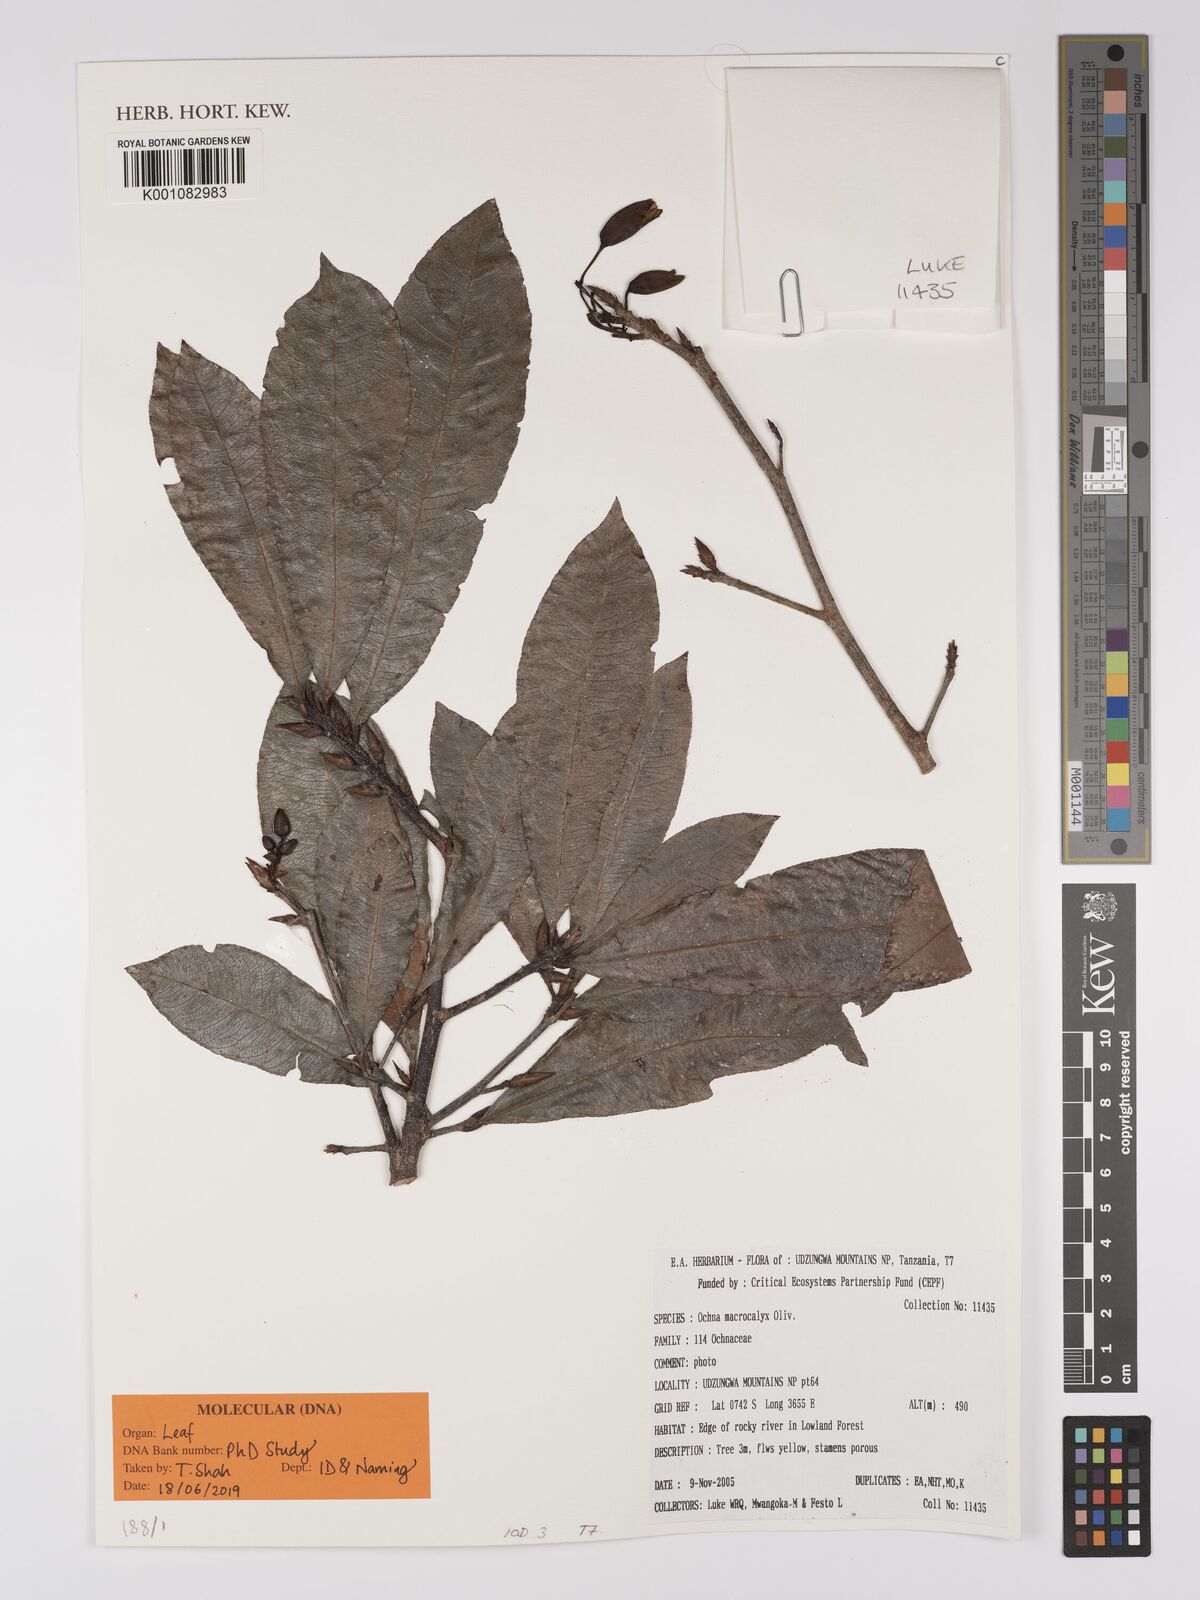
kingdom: Plantae
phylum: Tracheophyta
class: Magnoliopsida
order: Malpighiales
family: Ochnaceae
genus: Ochna
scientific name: Ochna macrocalyx
